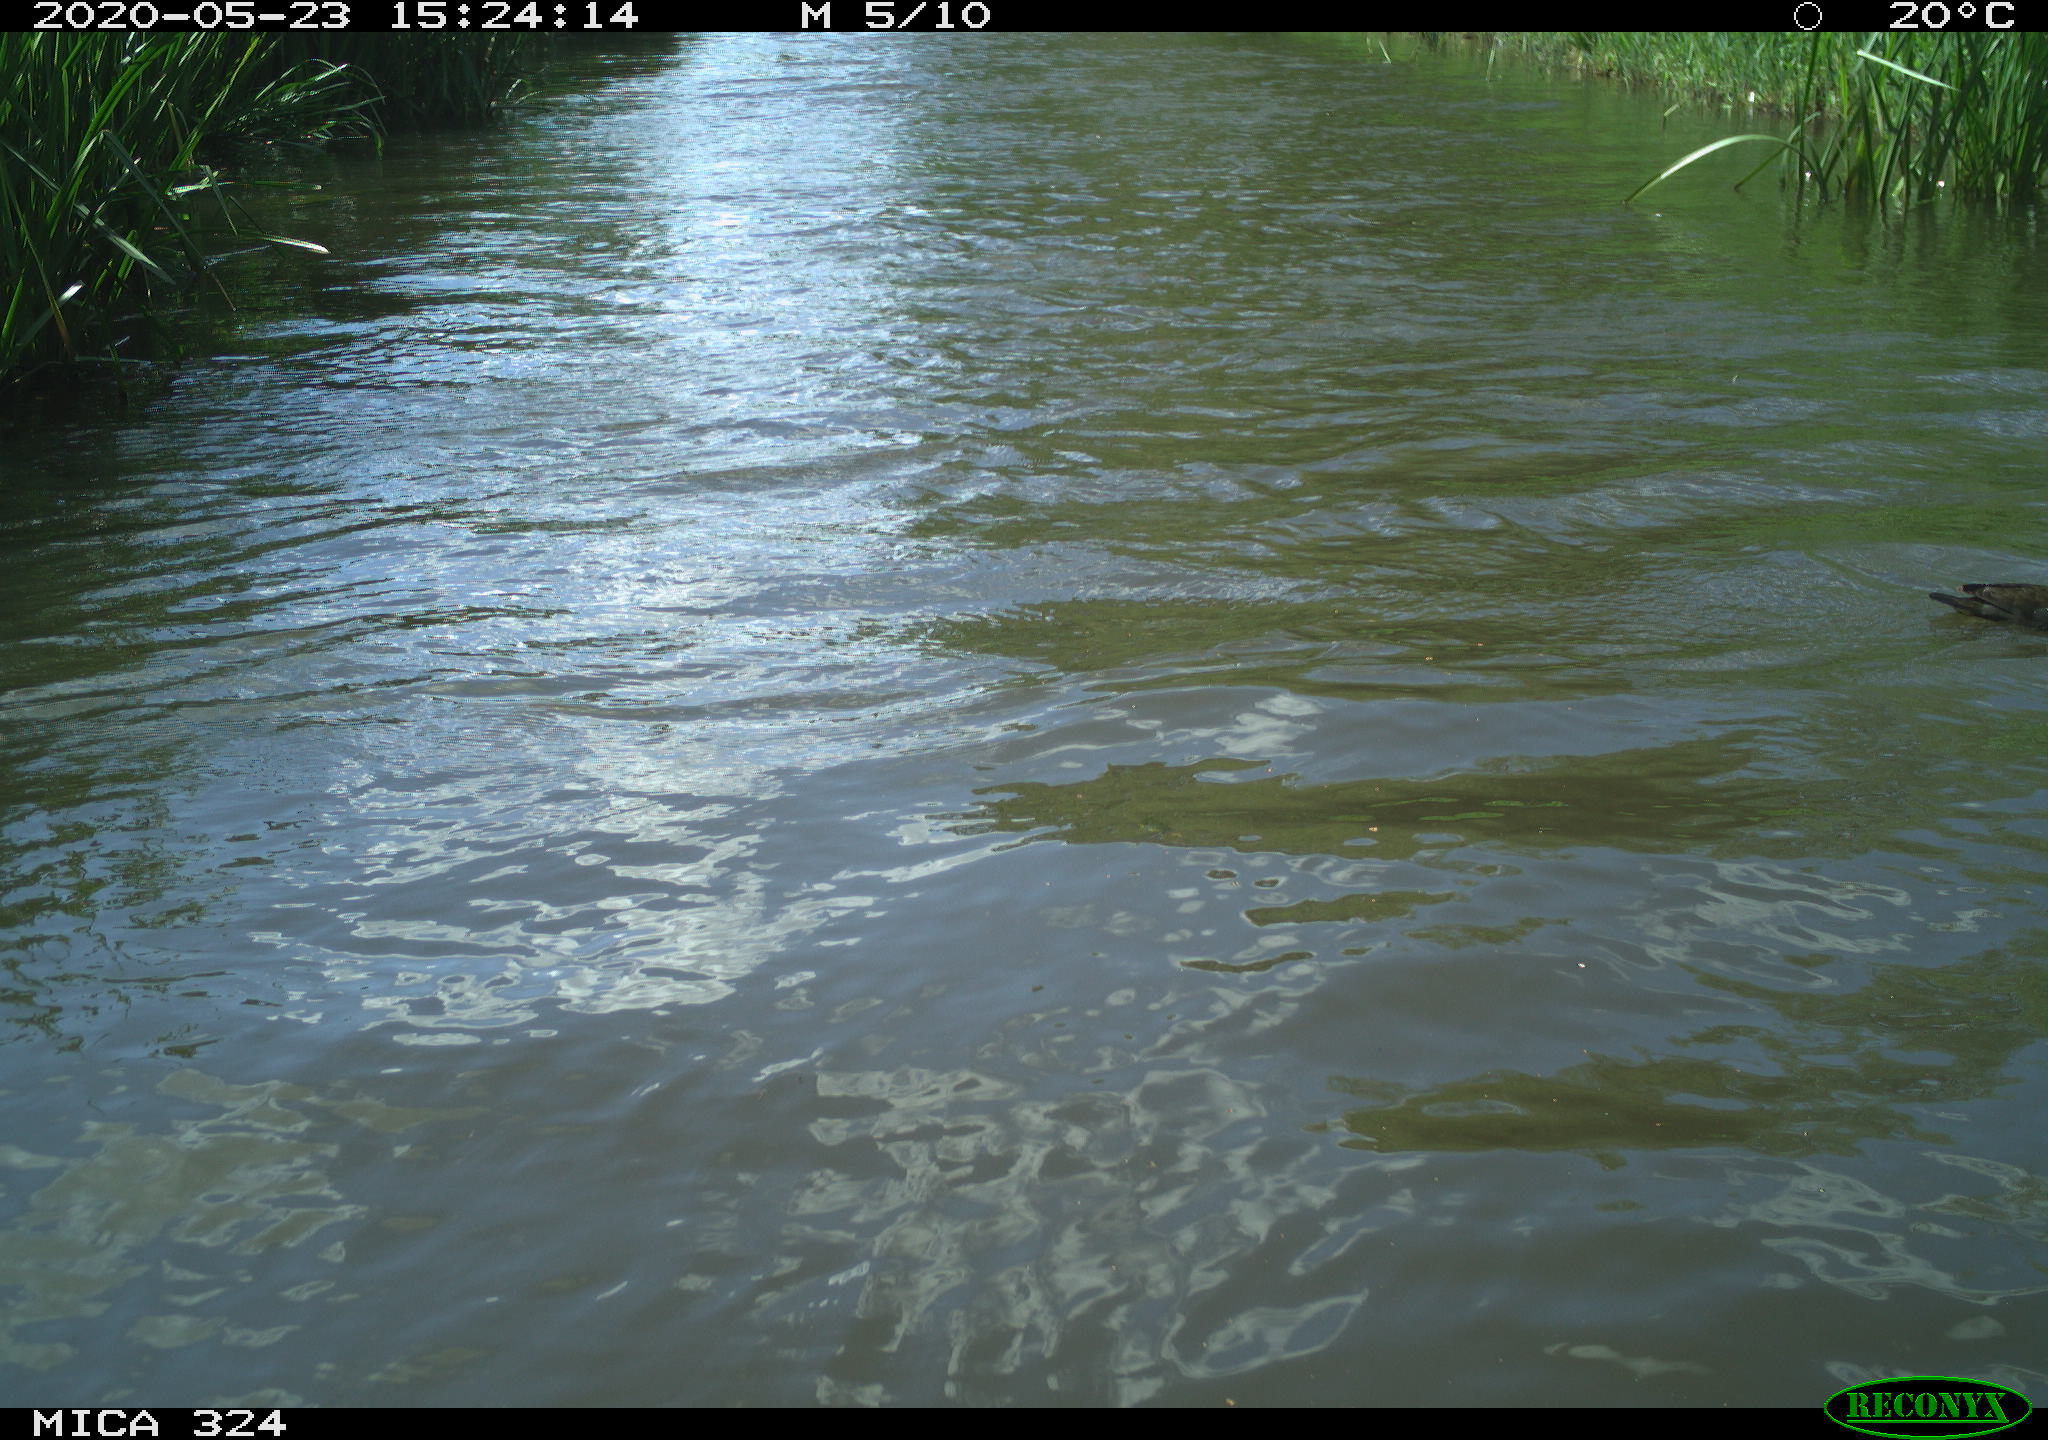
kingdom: Animalia
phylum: Chordata
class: Aves
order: Gruiformes
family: Rallidae
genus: Gallinula
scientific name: Gallinula chloropus
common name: Common moorhen
